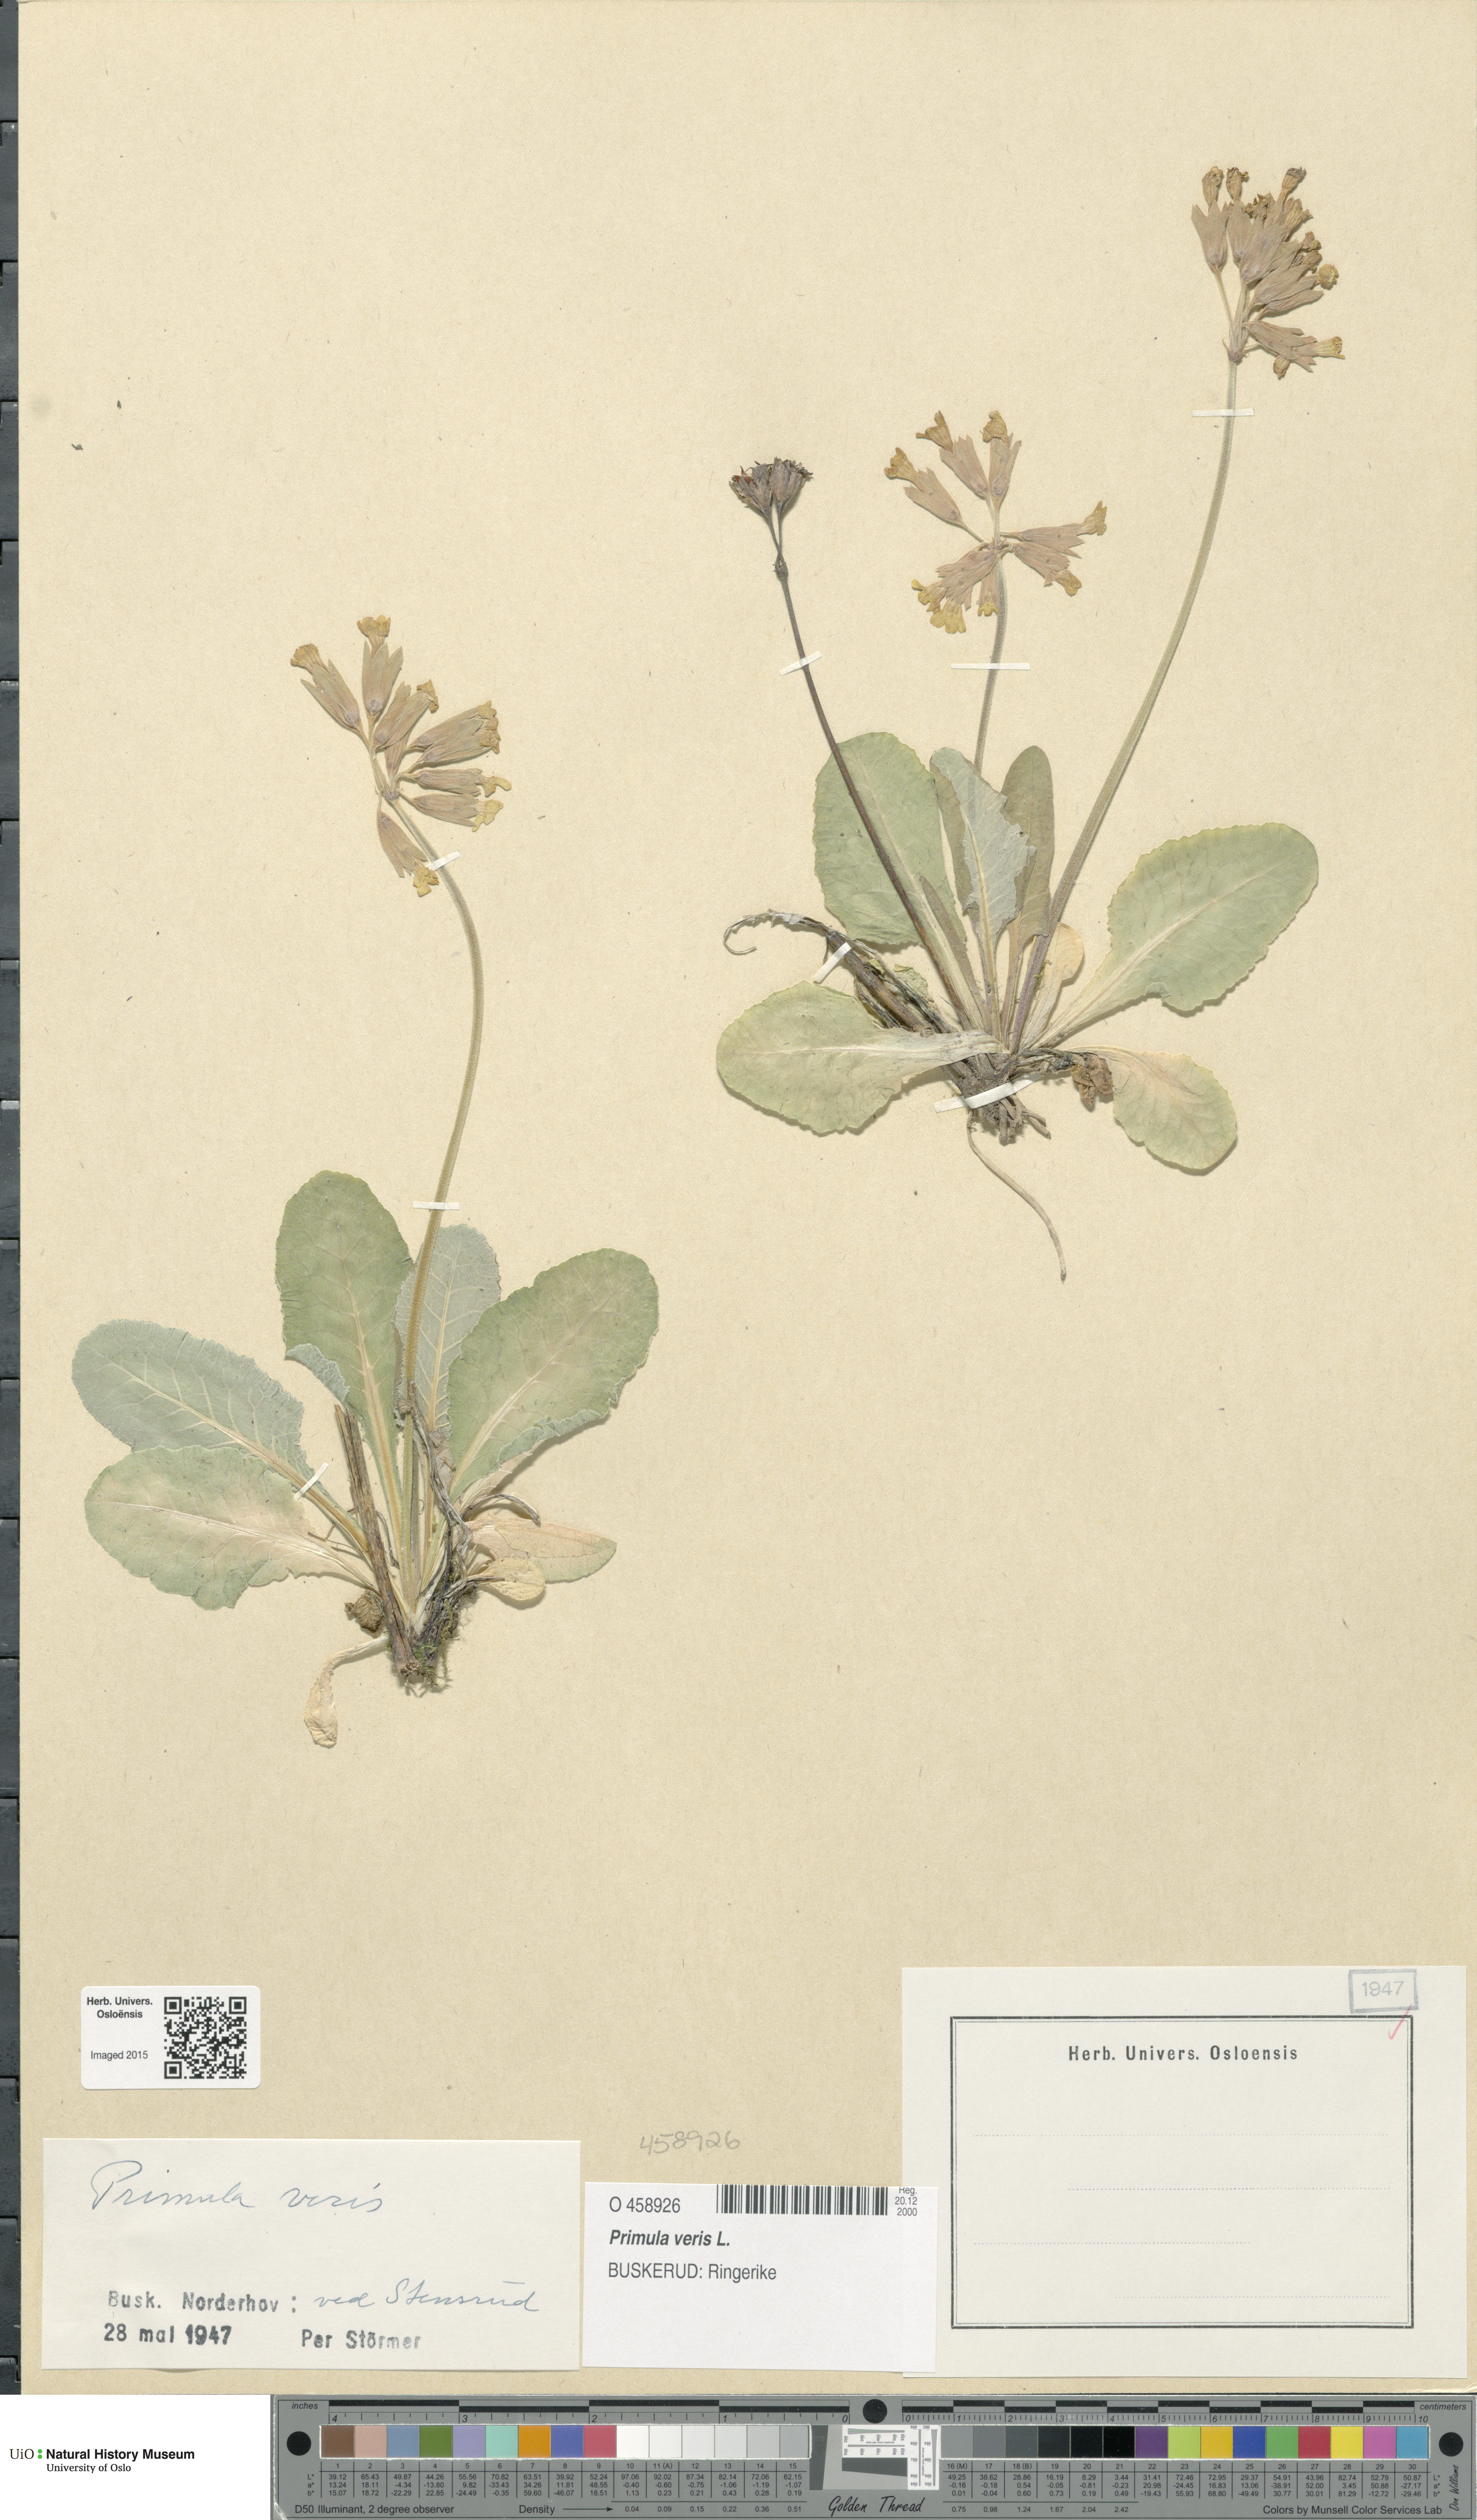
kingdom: Plantae
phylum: Tracheophyta
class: Magnoliopsida
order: Ericales
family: Primulaceae
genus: Primula
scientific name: Primula veris
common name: Cowslip
